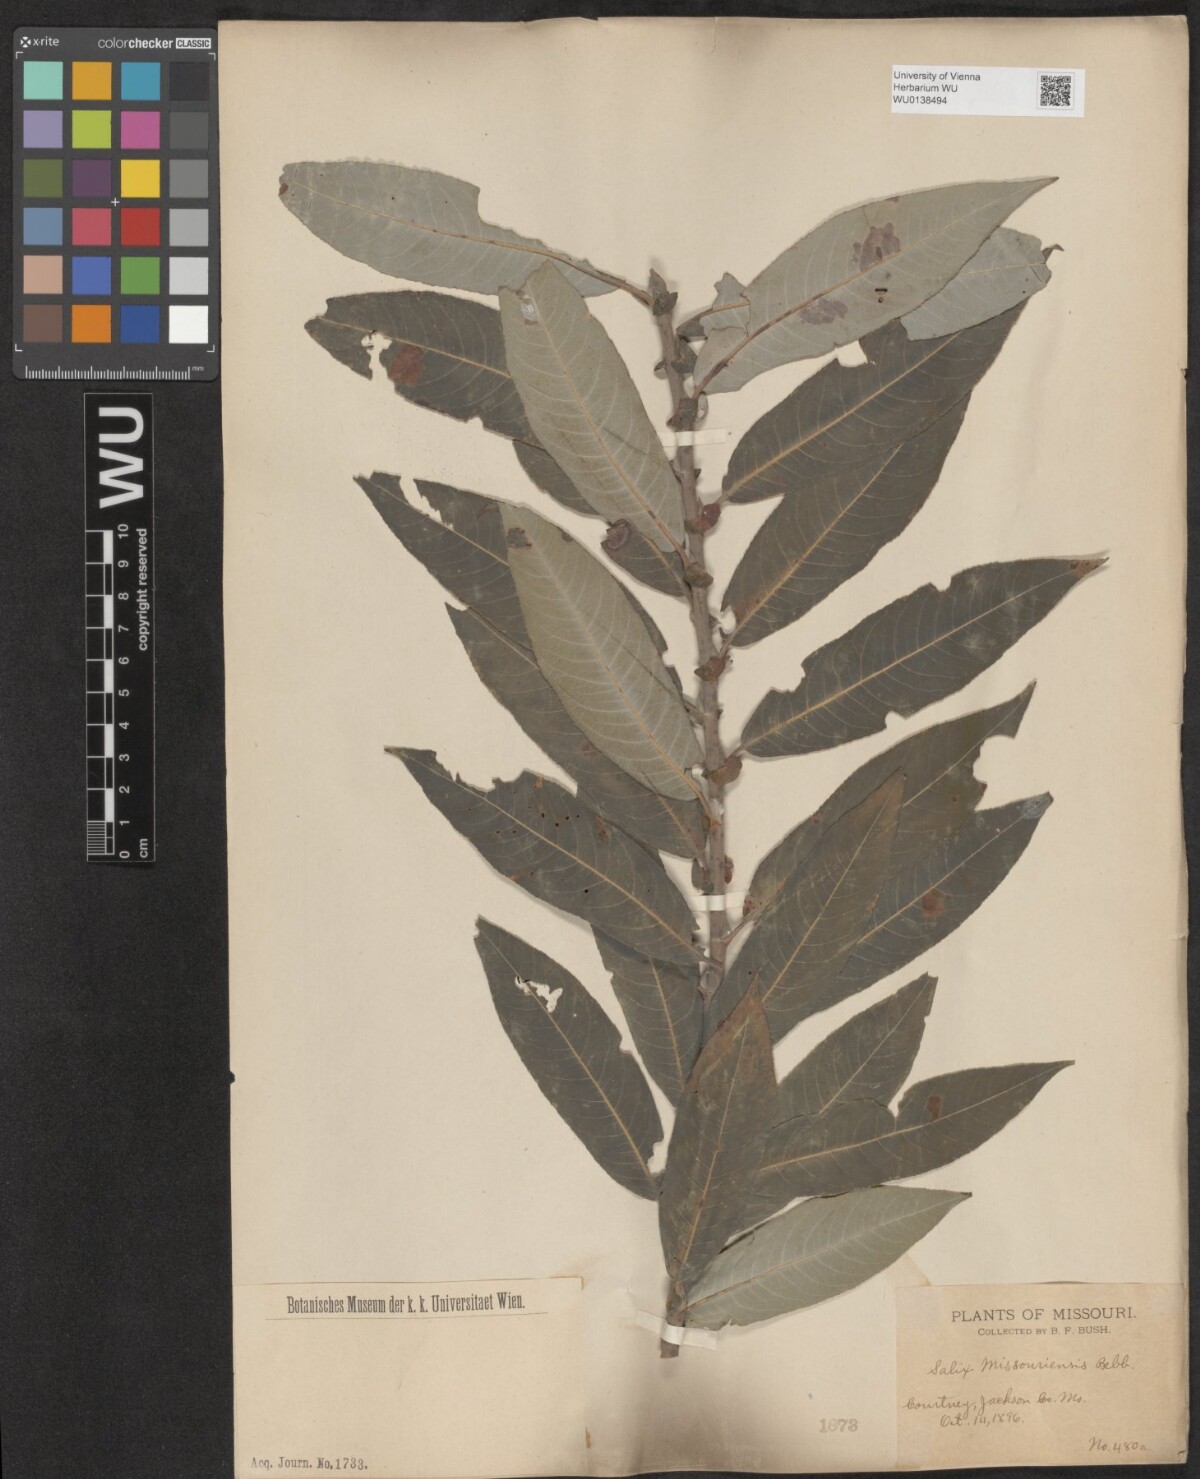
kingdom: Plantae
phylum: Tracheophyta
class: Magnoliopsida
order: Malpighiales
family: Salicaceae
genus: Salix
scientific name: Salix eriocephala
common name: Heart-leaved willow
